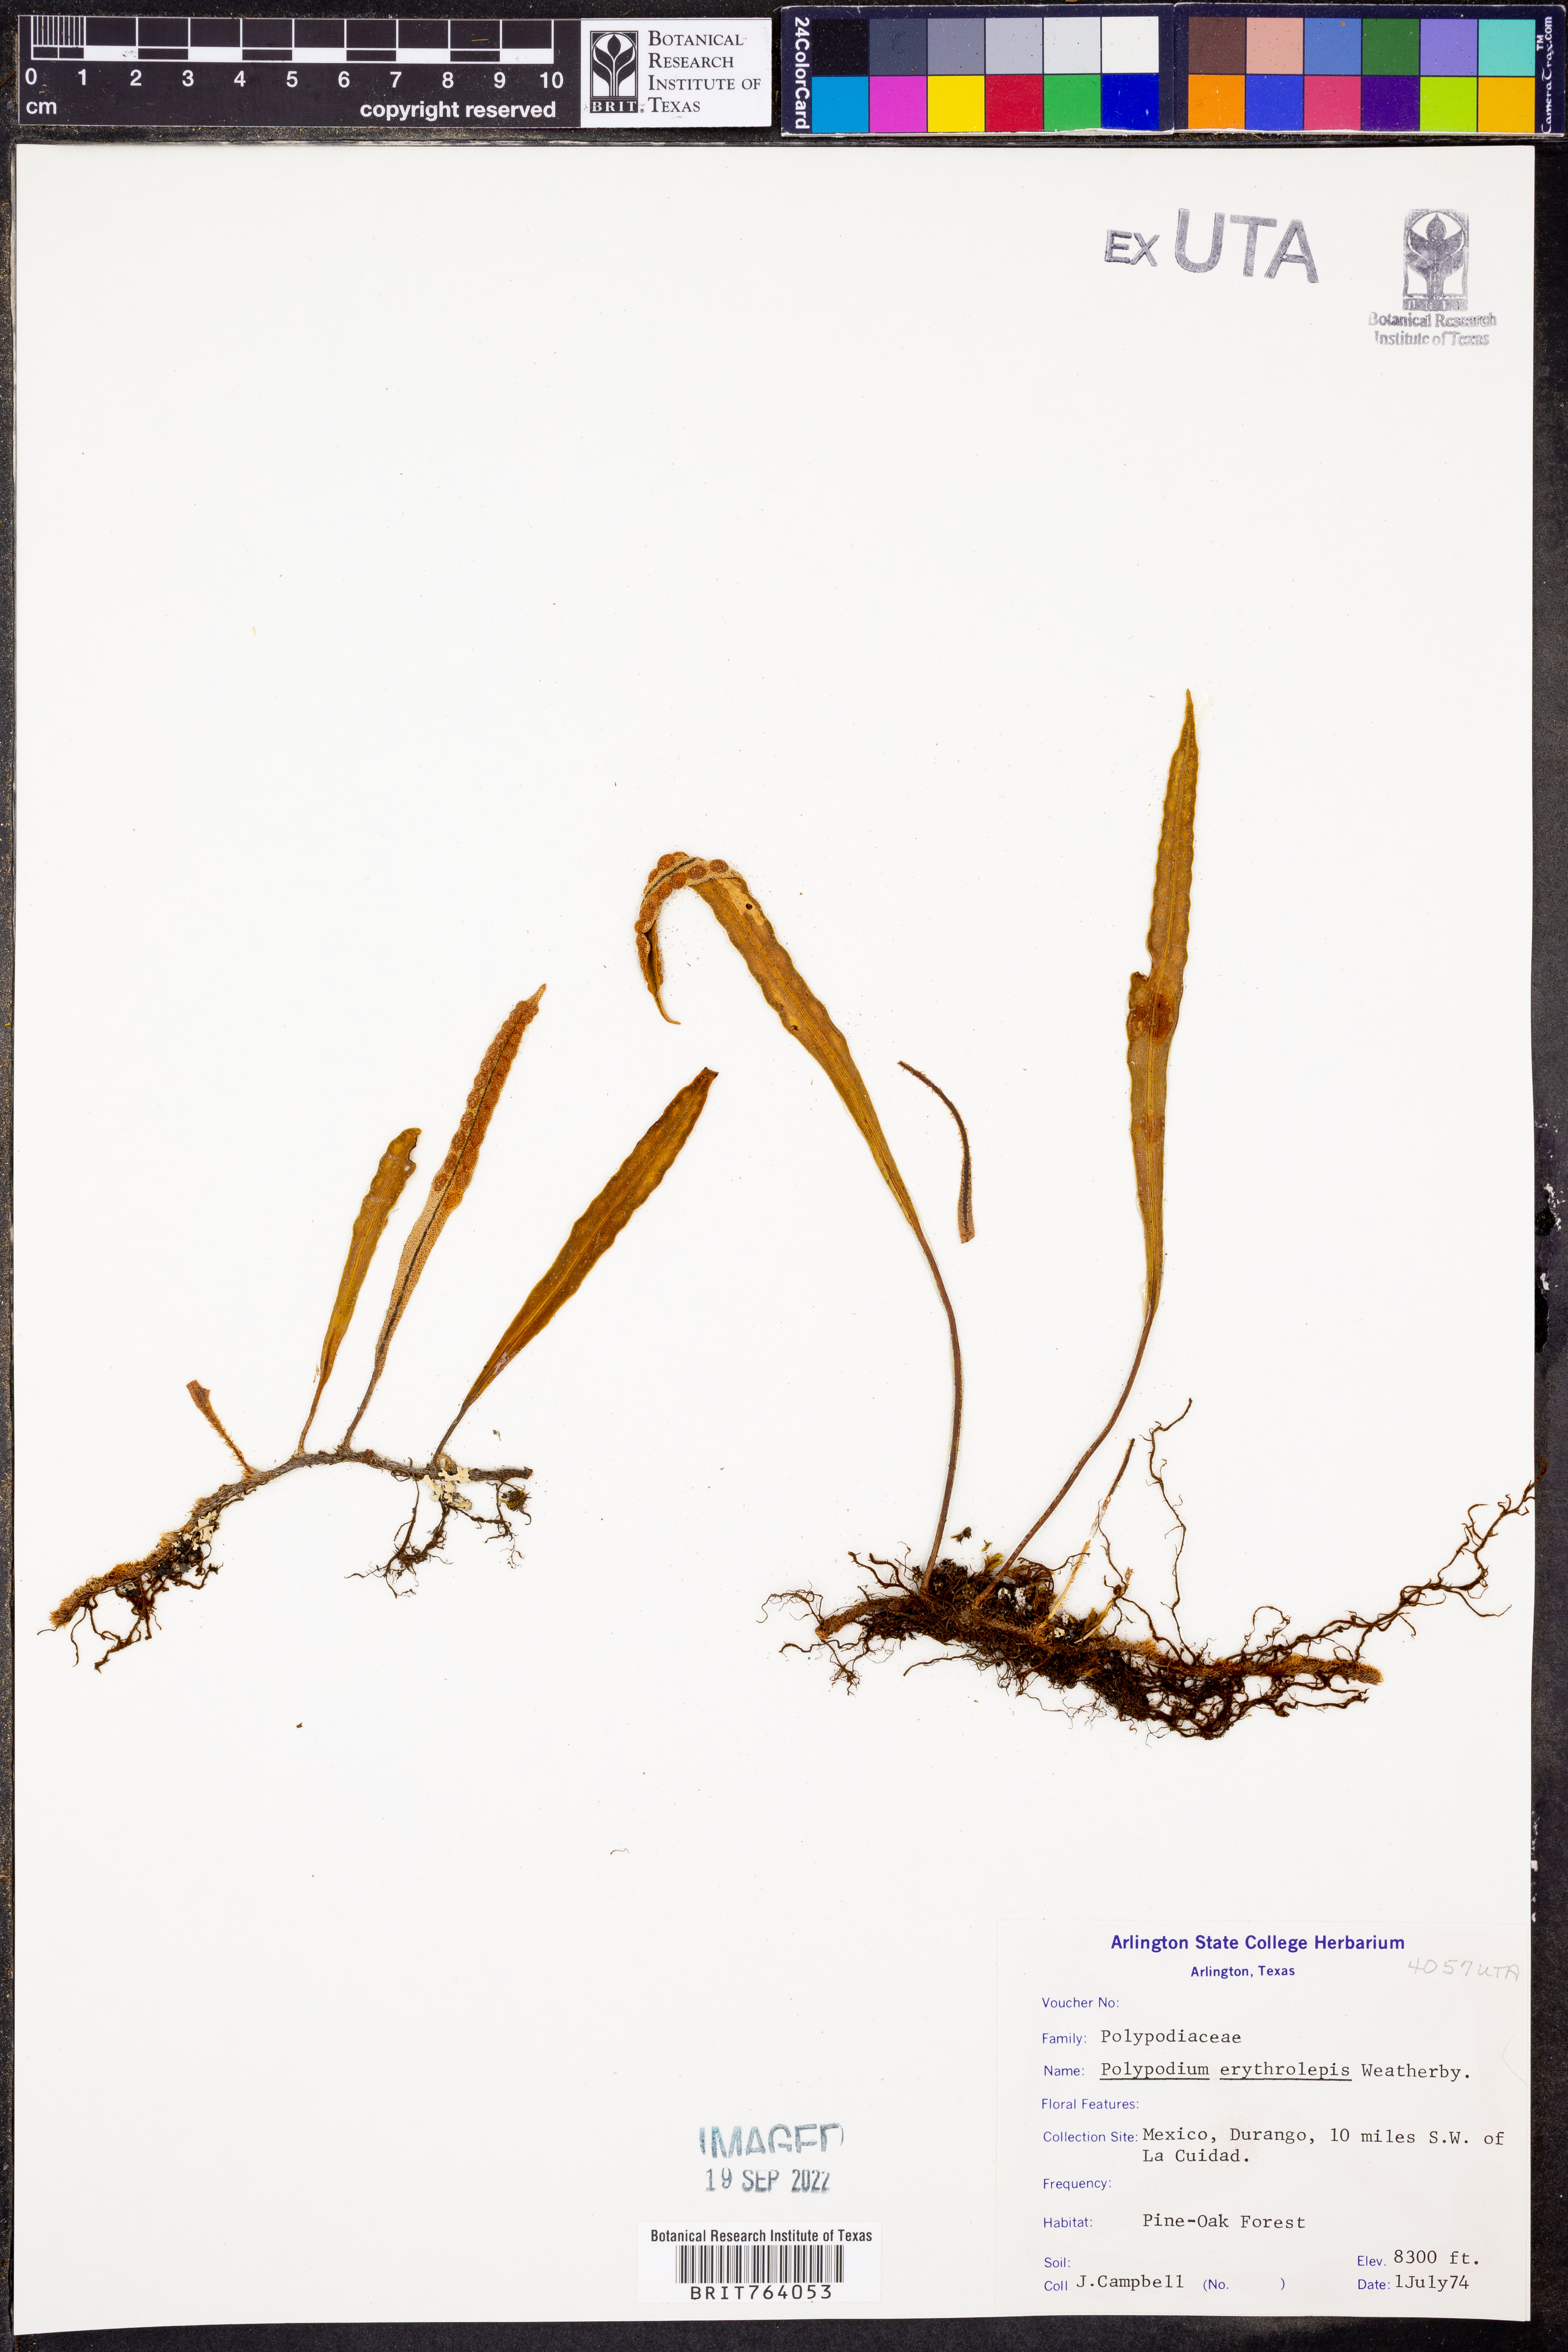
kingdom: Plantae
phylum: Tracheophyta
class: Polypodiopsida
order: Polypodiales
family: Polypodiaceae
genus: Pleopeltis
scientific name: Pleopeltis polylepis
